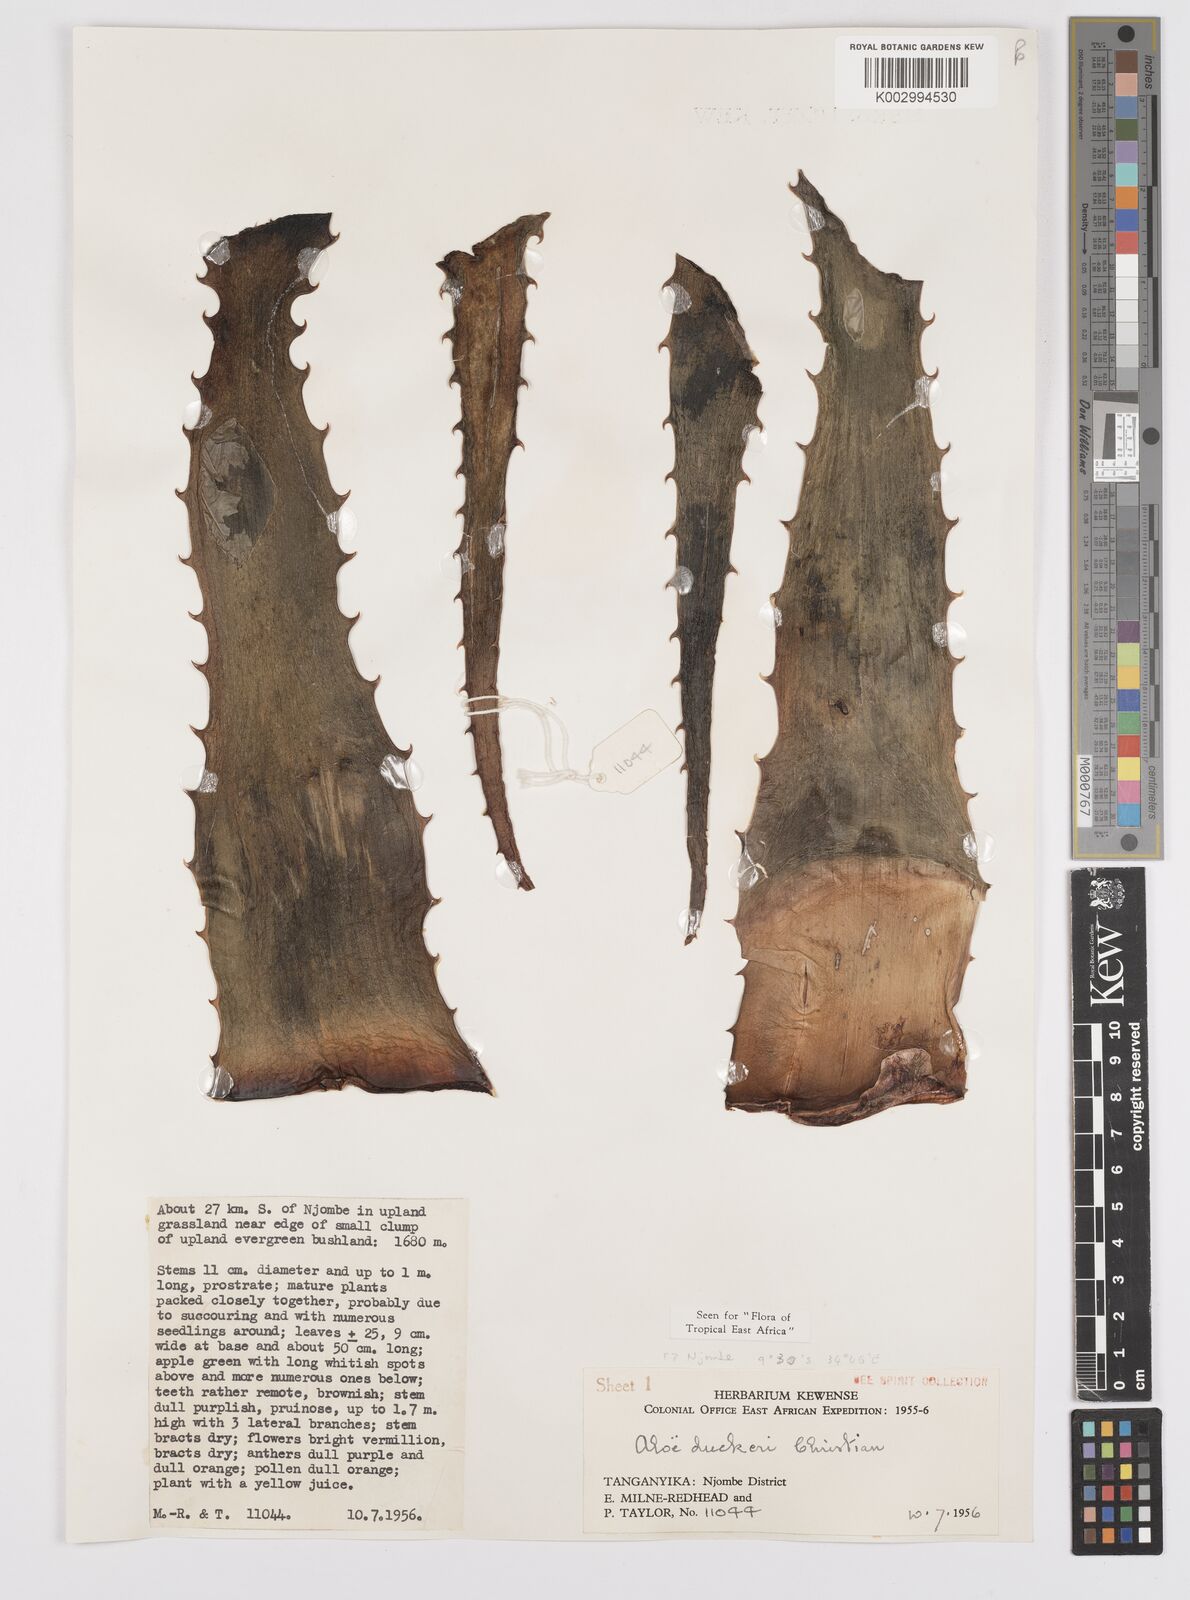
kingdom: Plantae
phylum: Tracheophyta
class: Liliopsida
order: Asparagales
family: Asphodelaceae
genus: Aloe
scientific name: Aloe duckeri
